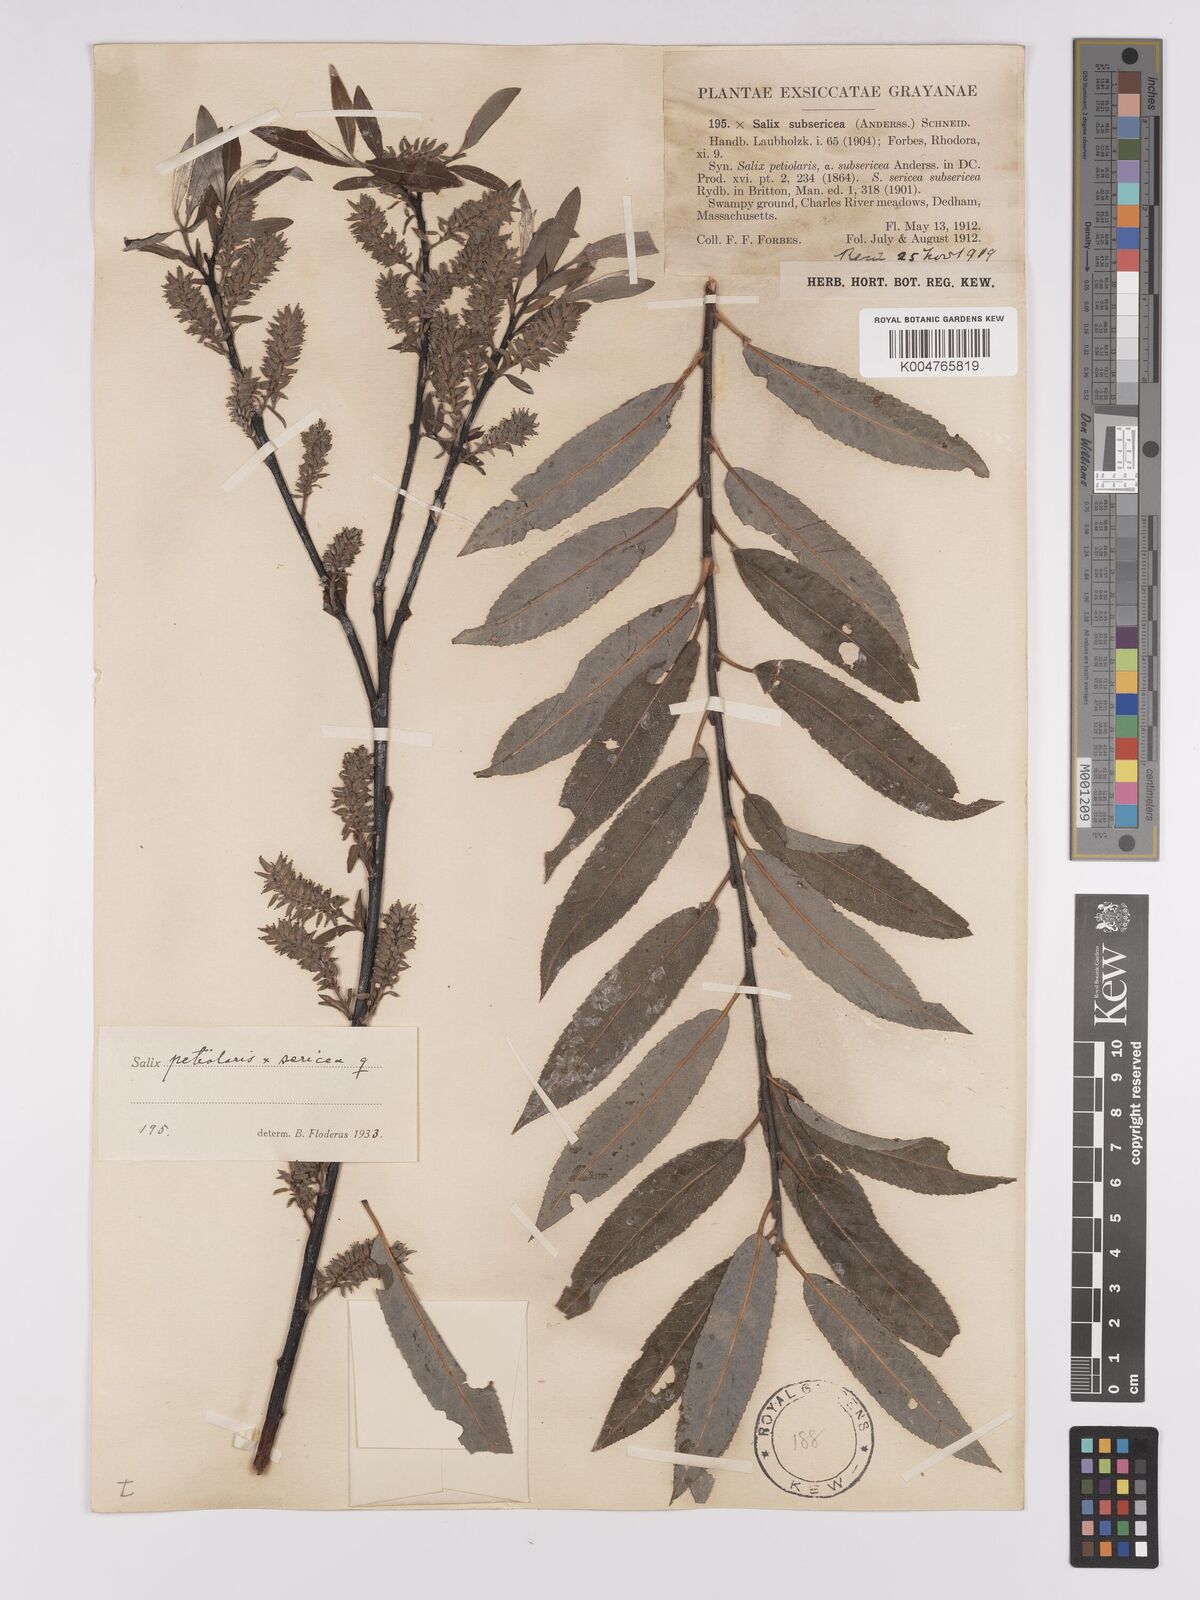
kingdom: Plantae
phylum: Tracheophyta
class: Magnoliopsida
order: Malpighiales
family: Salicaceae
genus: Salix
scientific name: Salix petiolaris
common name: Slender willow
